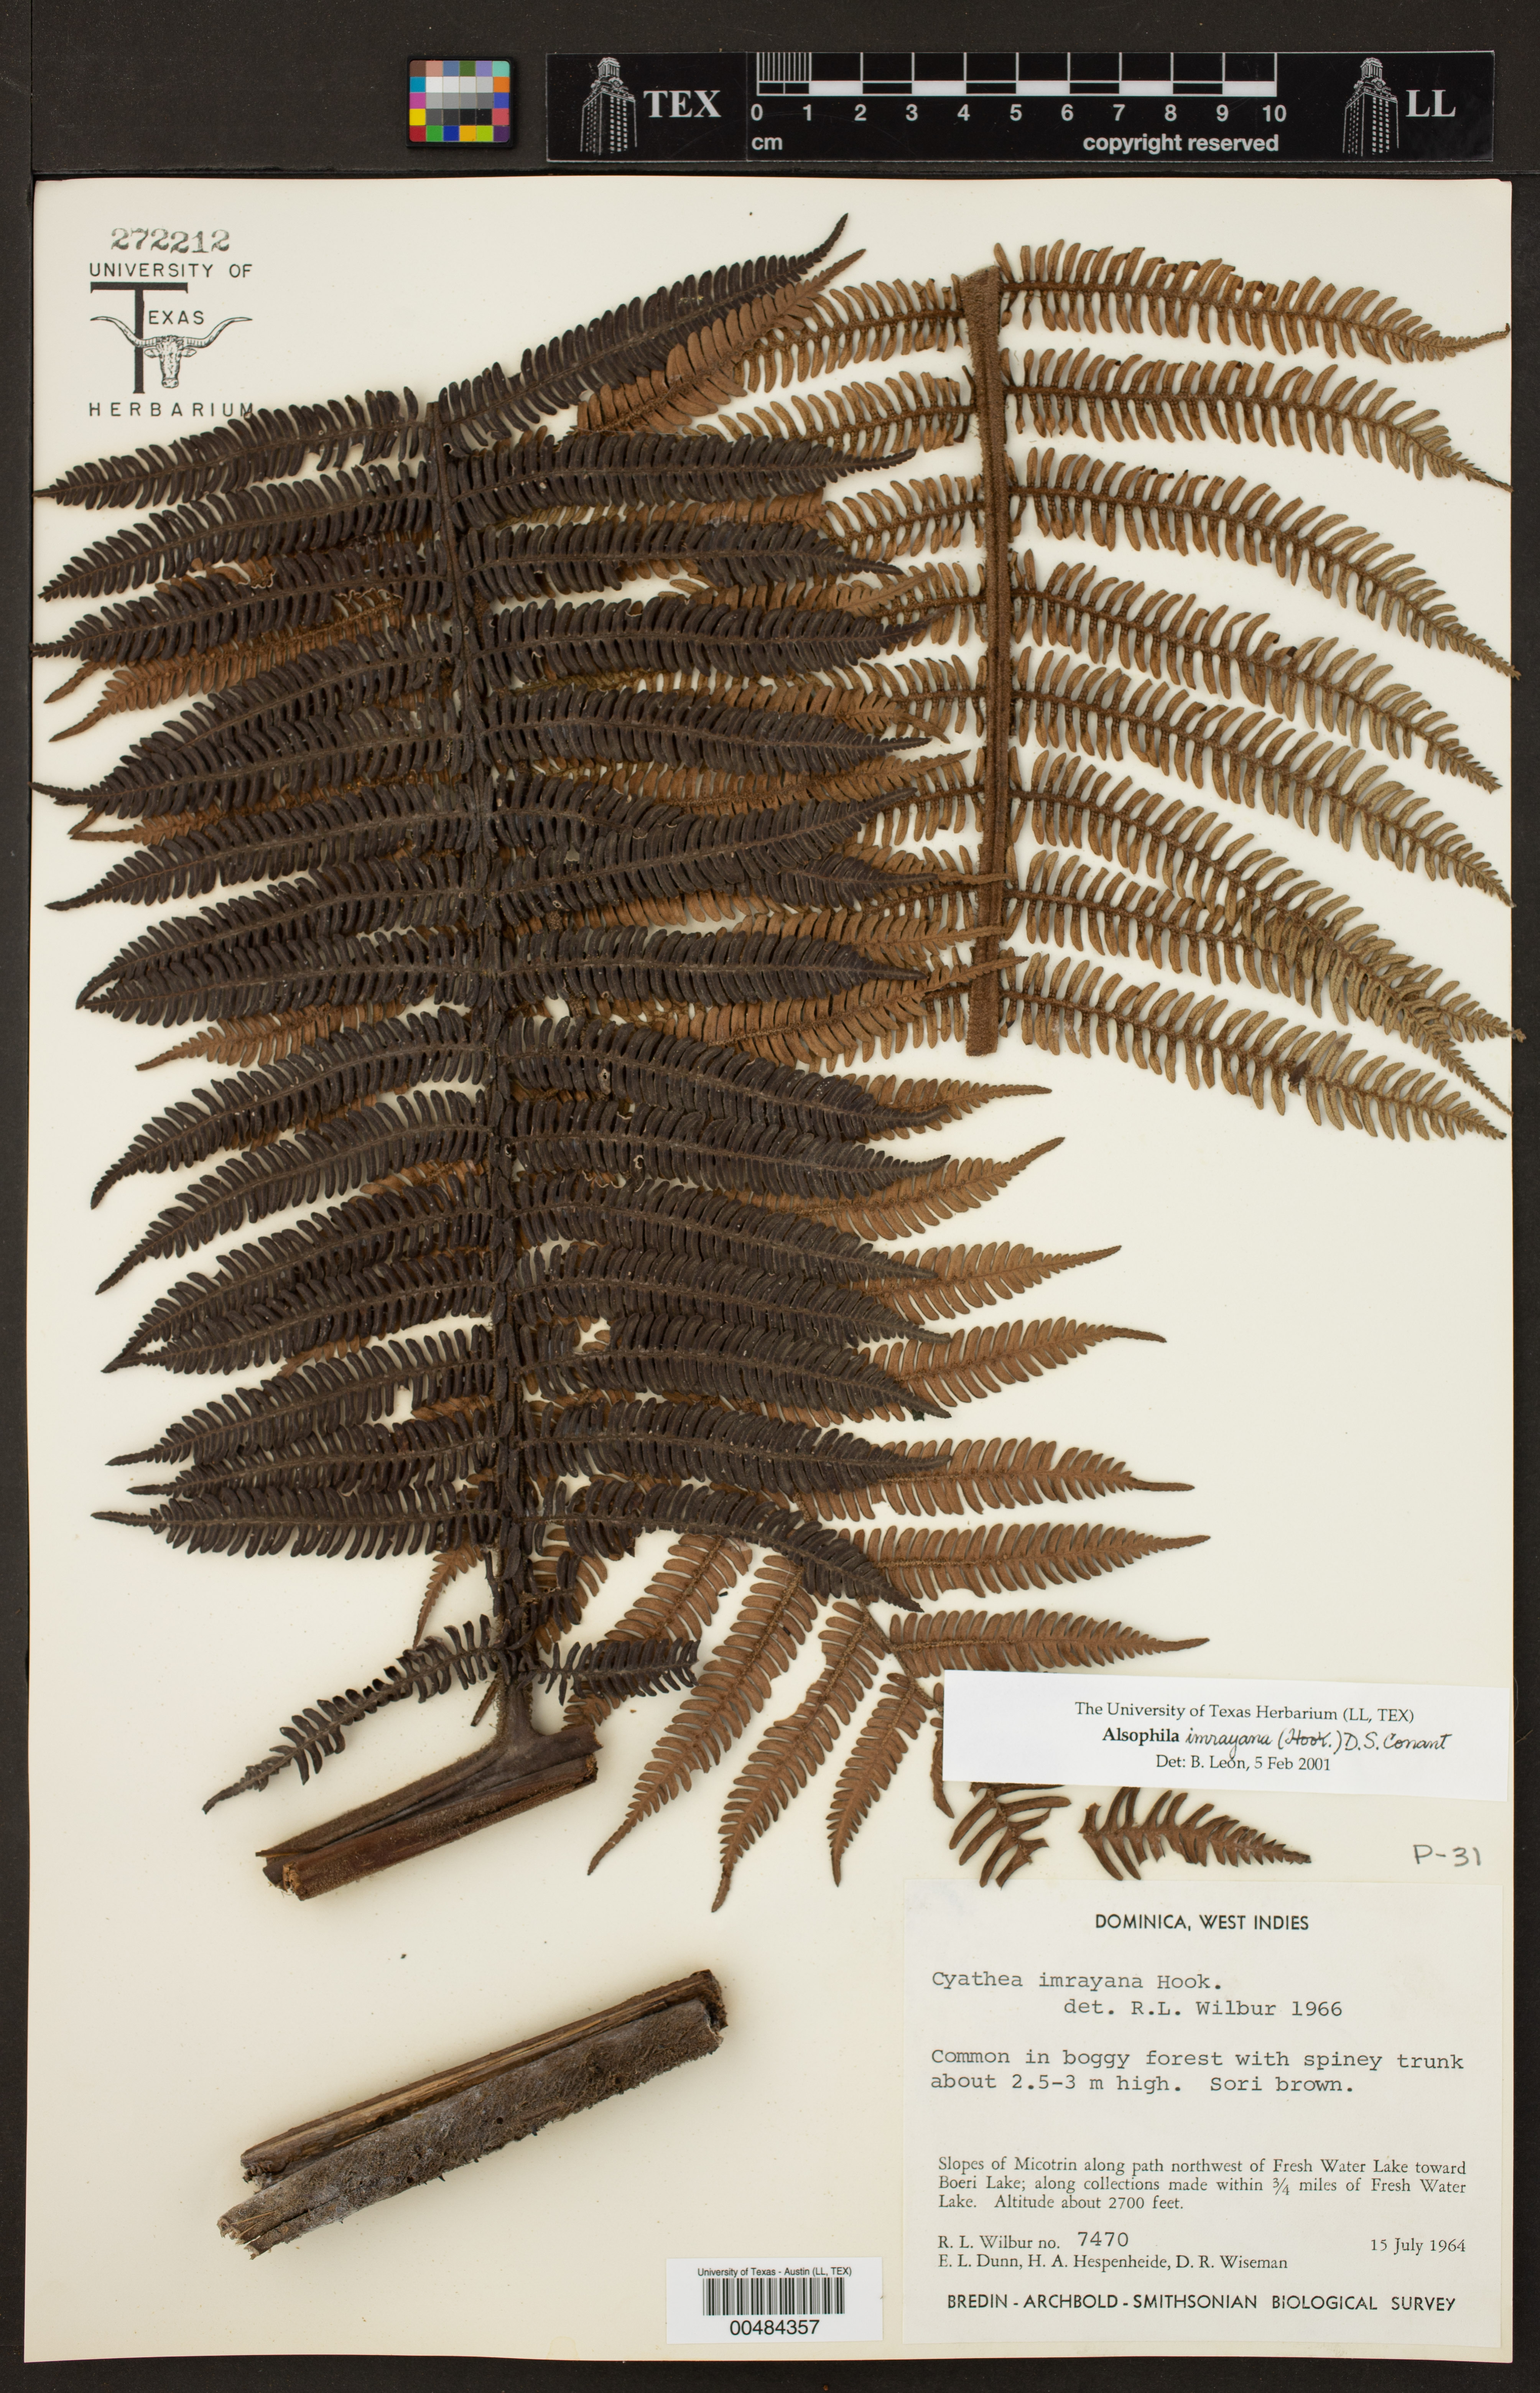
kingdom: Plantae
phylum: Tracheophyta
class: Polypodiopsida
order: Cyatheales
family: Cyatheaceae
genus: Alsophila
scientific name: Alsophila imrayana
